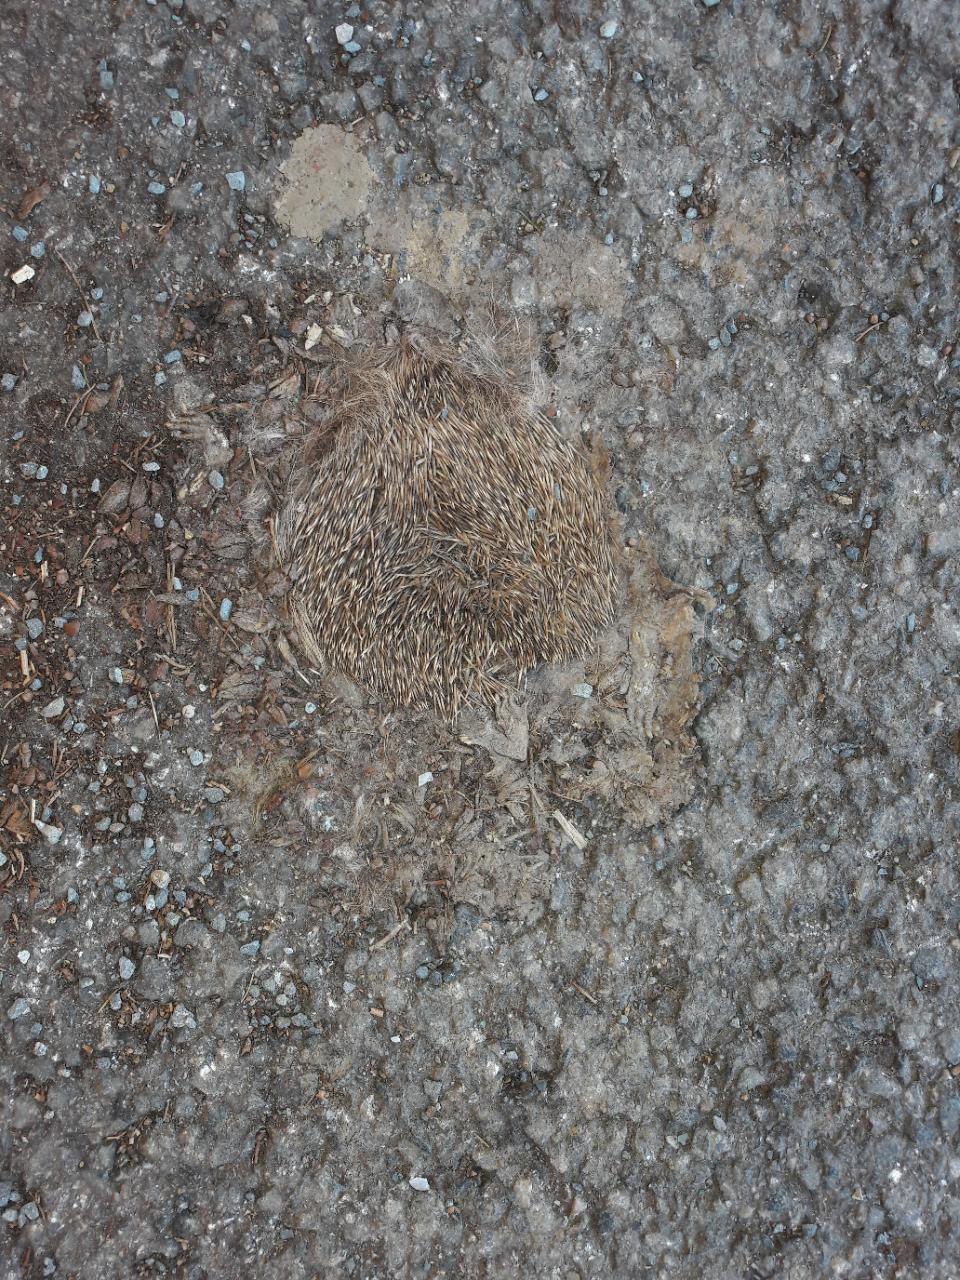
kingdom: Animalia
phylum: Chordata
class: Mammalia
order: Erinaceomorpha
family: Erinaceidae
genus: Erinaceus
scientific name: Erinaceus
